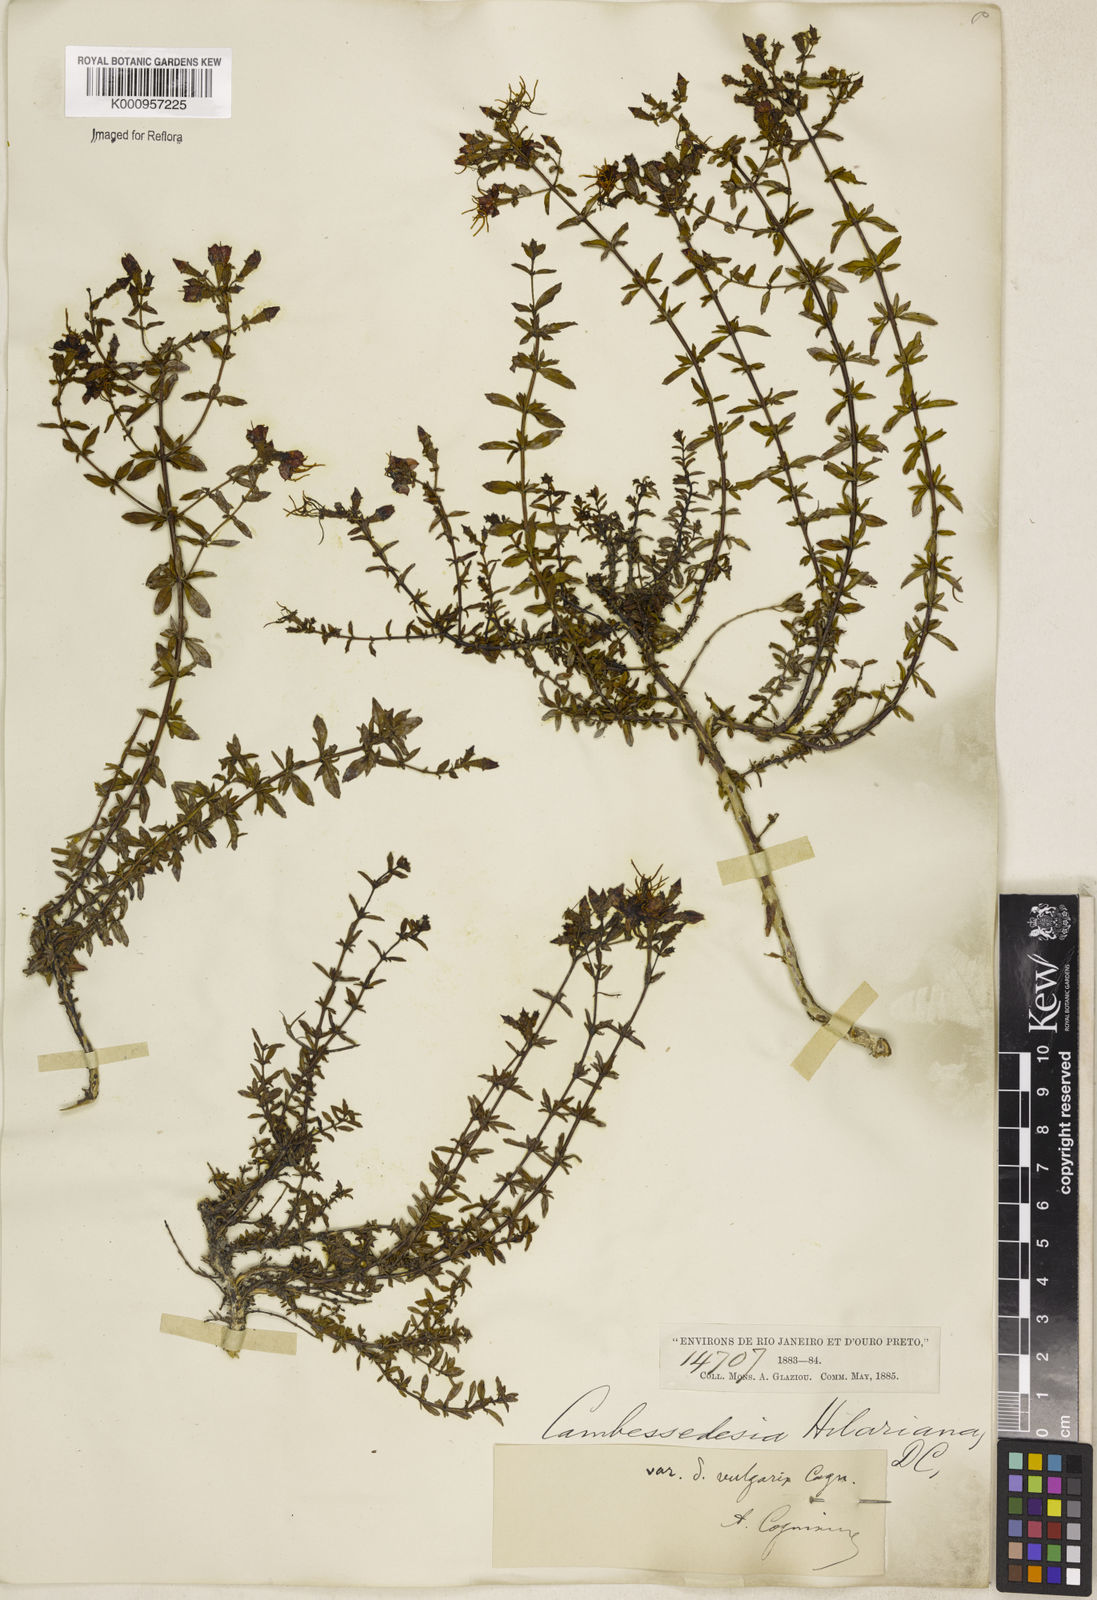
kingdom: Plantae
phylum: Tracheophyta
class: Magnoliopsida
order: Myrtales
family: Melastomataceae
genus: Cambessedesia
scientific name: Cambessedesia hilariana
